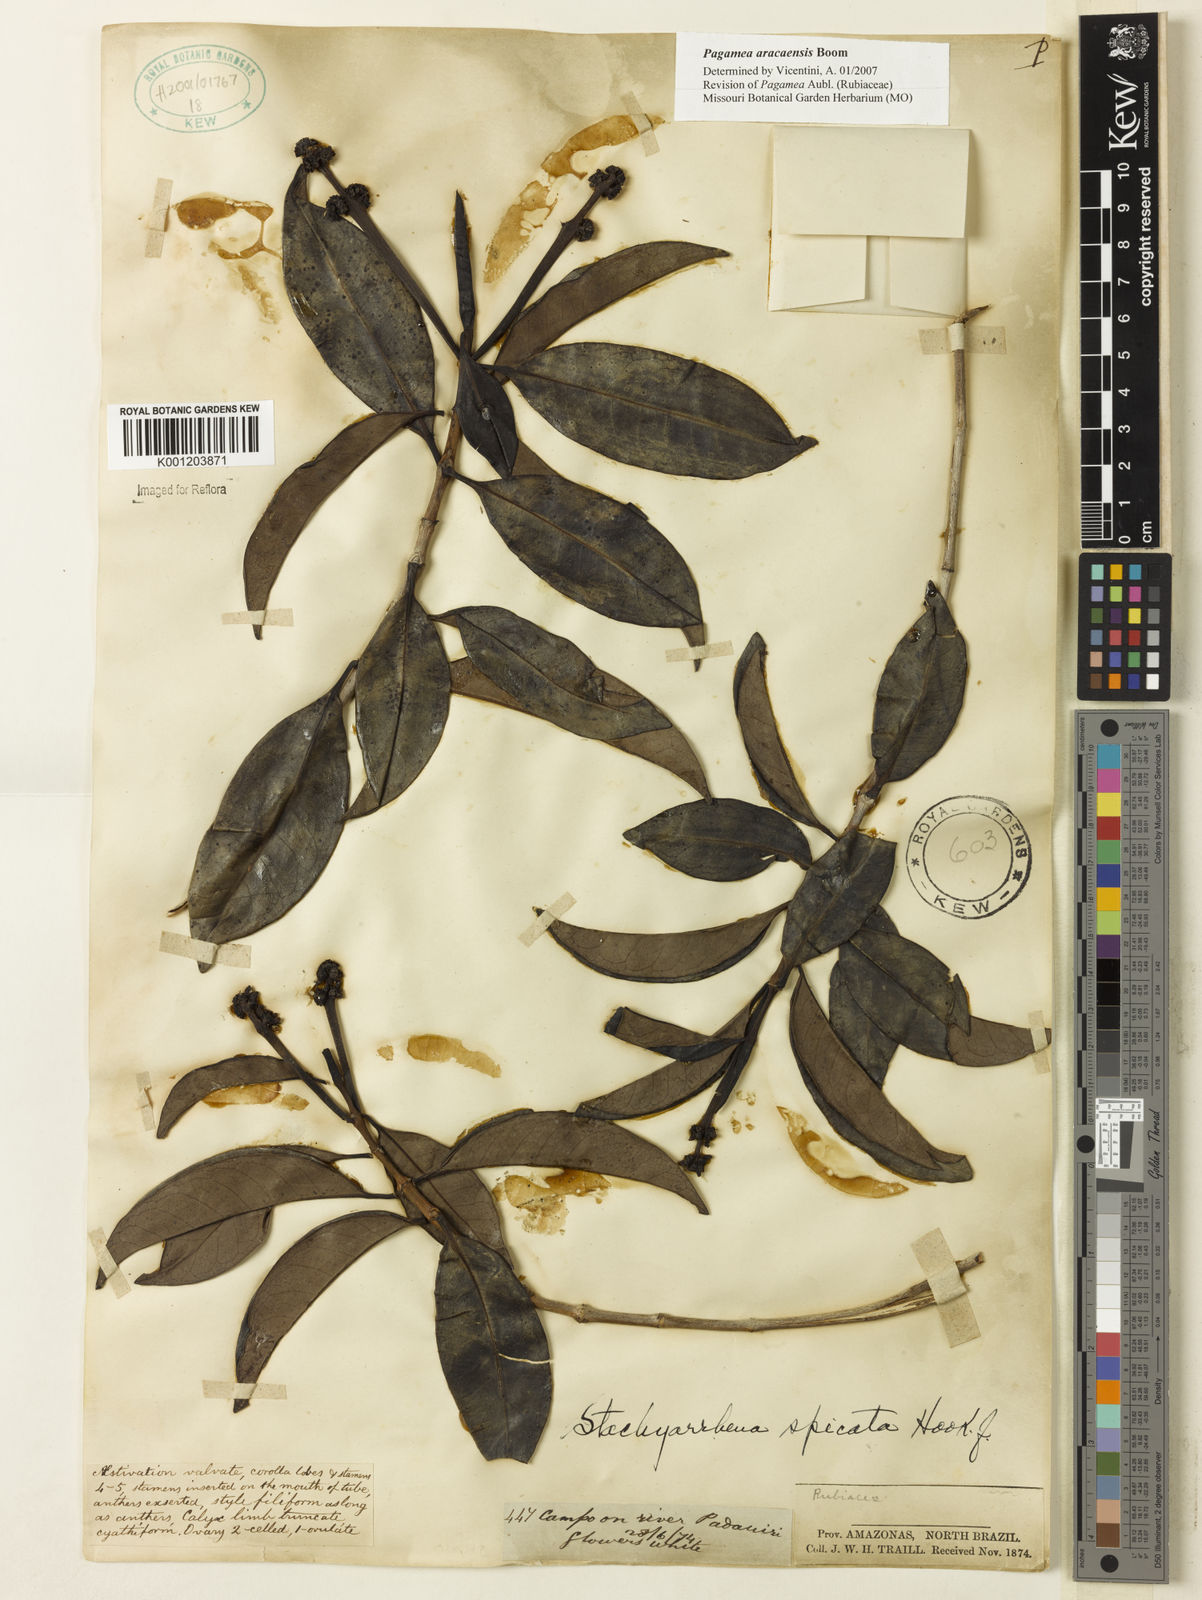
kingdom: Plantae
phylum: Tracheophyta
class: Magnoliopsida
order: Gentianales
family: Rubiaceae
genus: Pagamea
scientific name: Pagamea aracaensis
